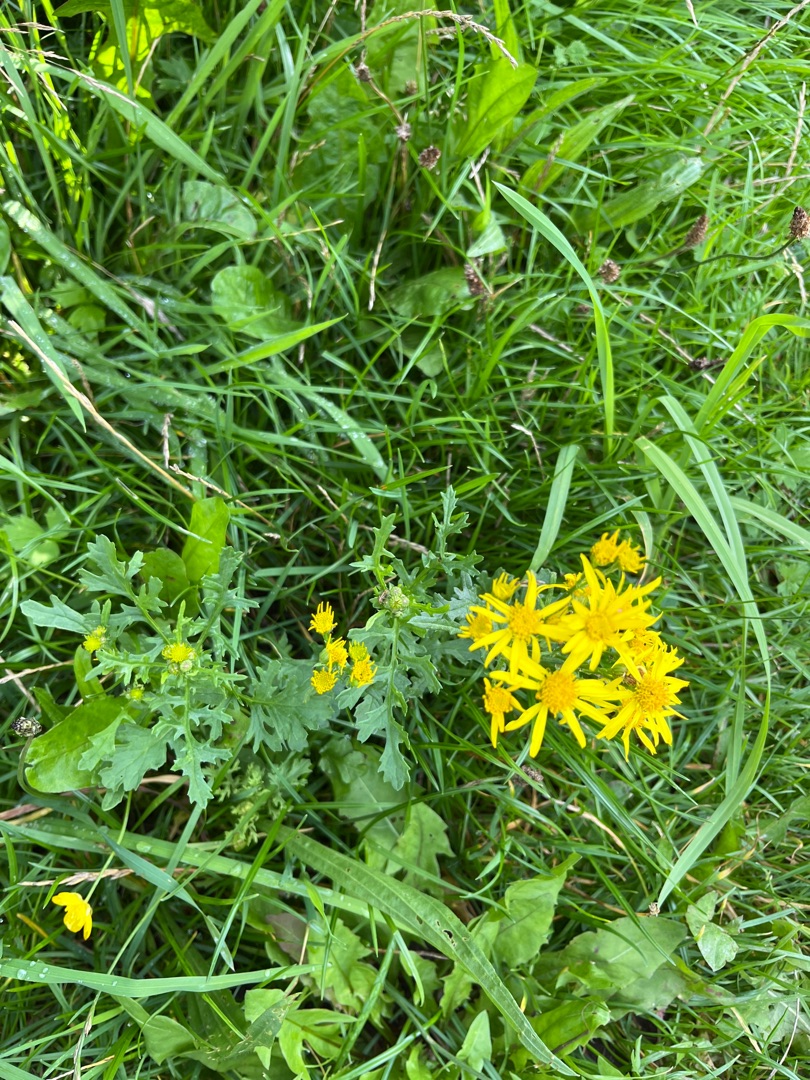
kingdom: Plantae
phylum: Tracheophyta
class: Magnoliopsida
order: Asterales
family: Asteraceae
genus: Jacobaea
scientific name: Jacobaea vulgaris
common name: Eng-brandbæger
